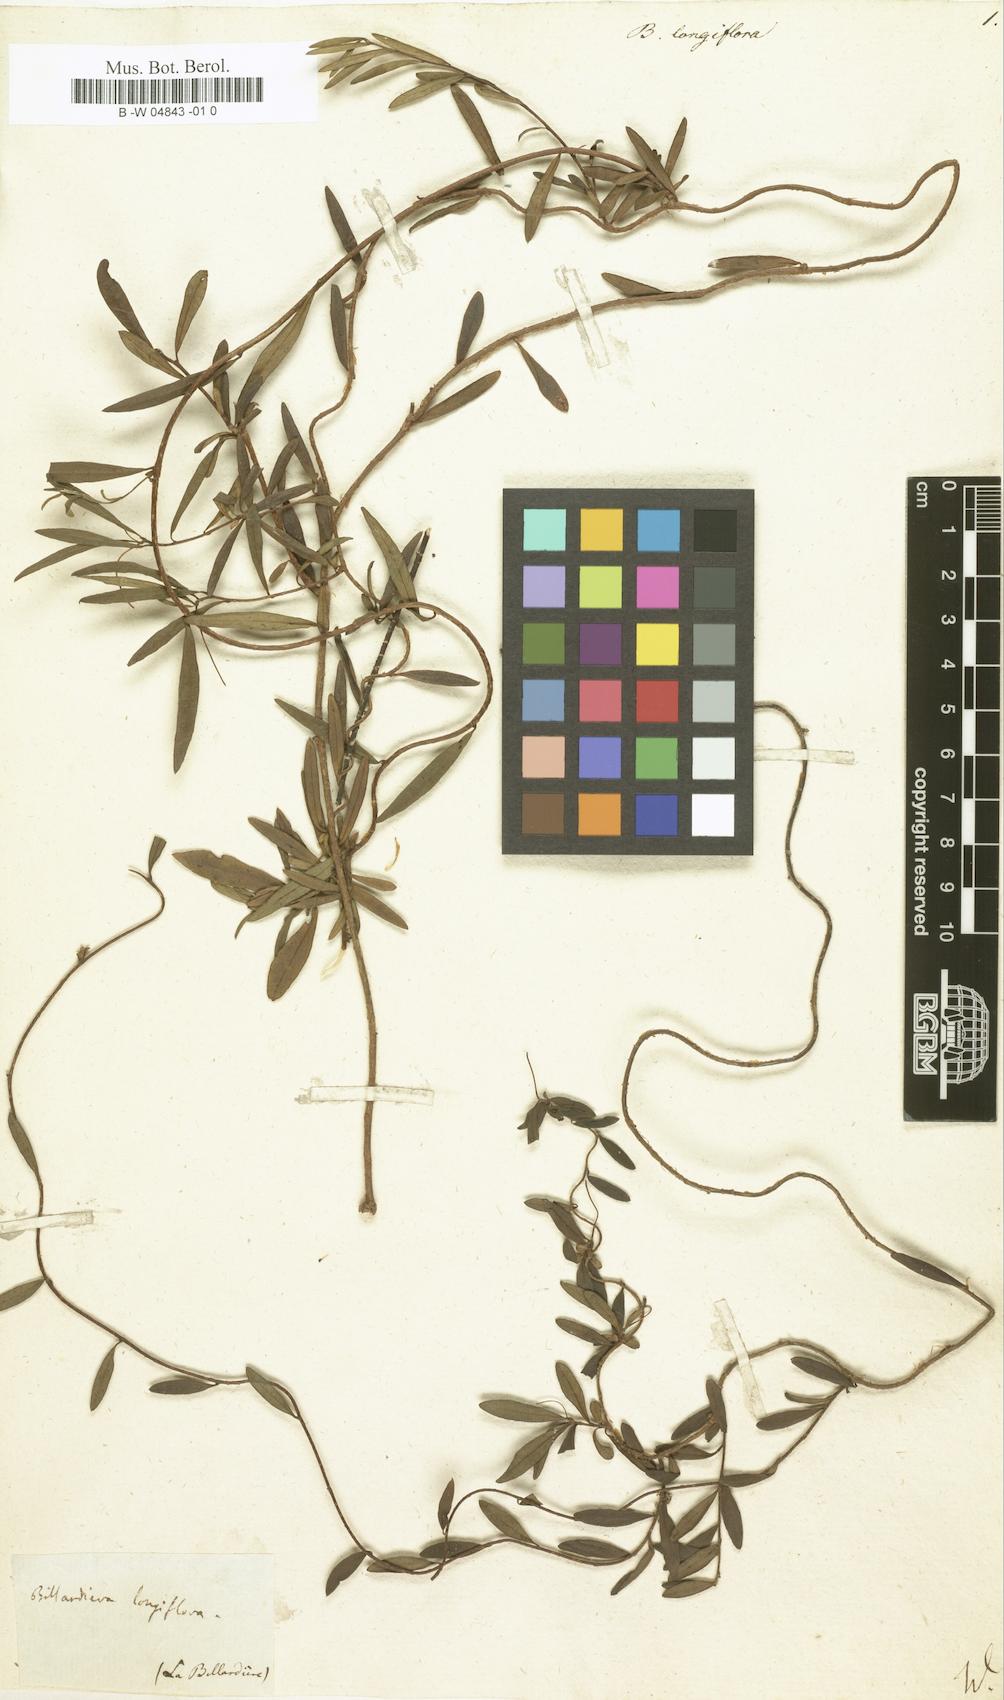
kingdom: Plantae
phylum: Tracheophyta
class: Magnoliopsida
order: Apiales
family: Pittosporaceae
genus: Billardiera
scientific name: Billardiera longiflora
